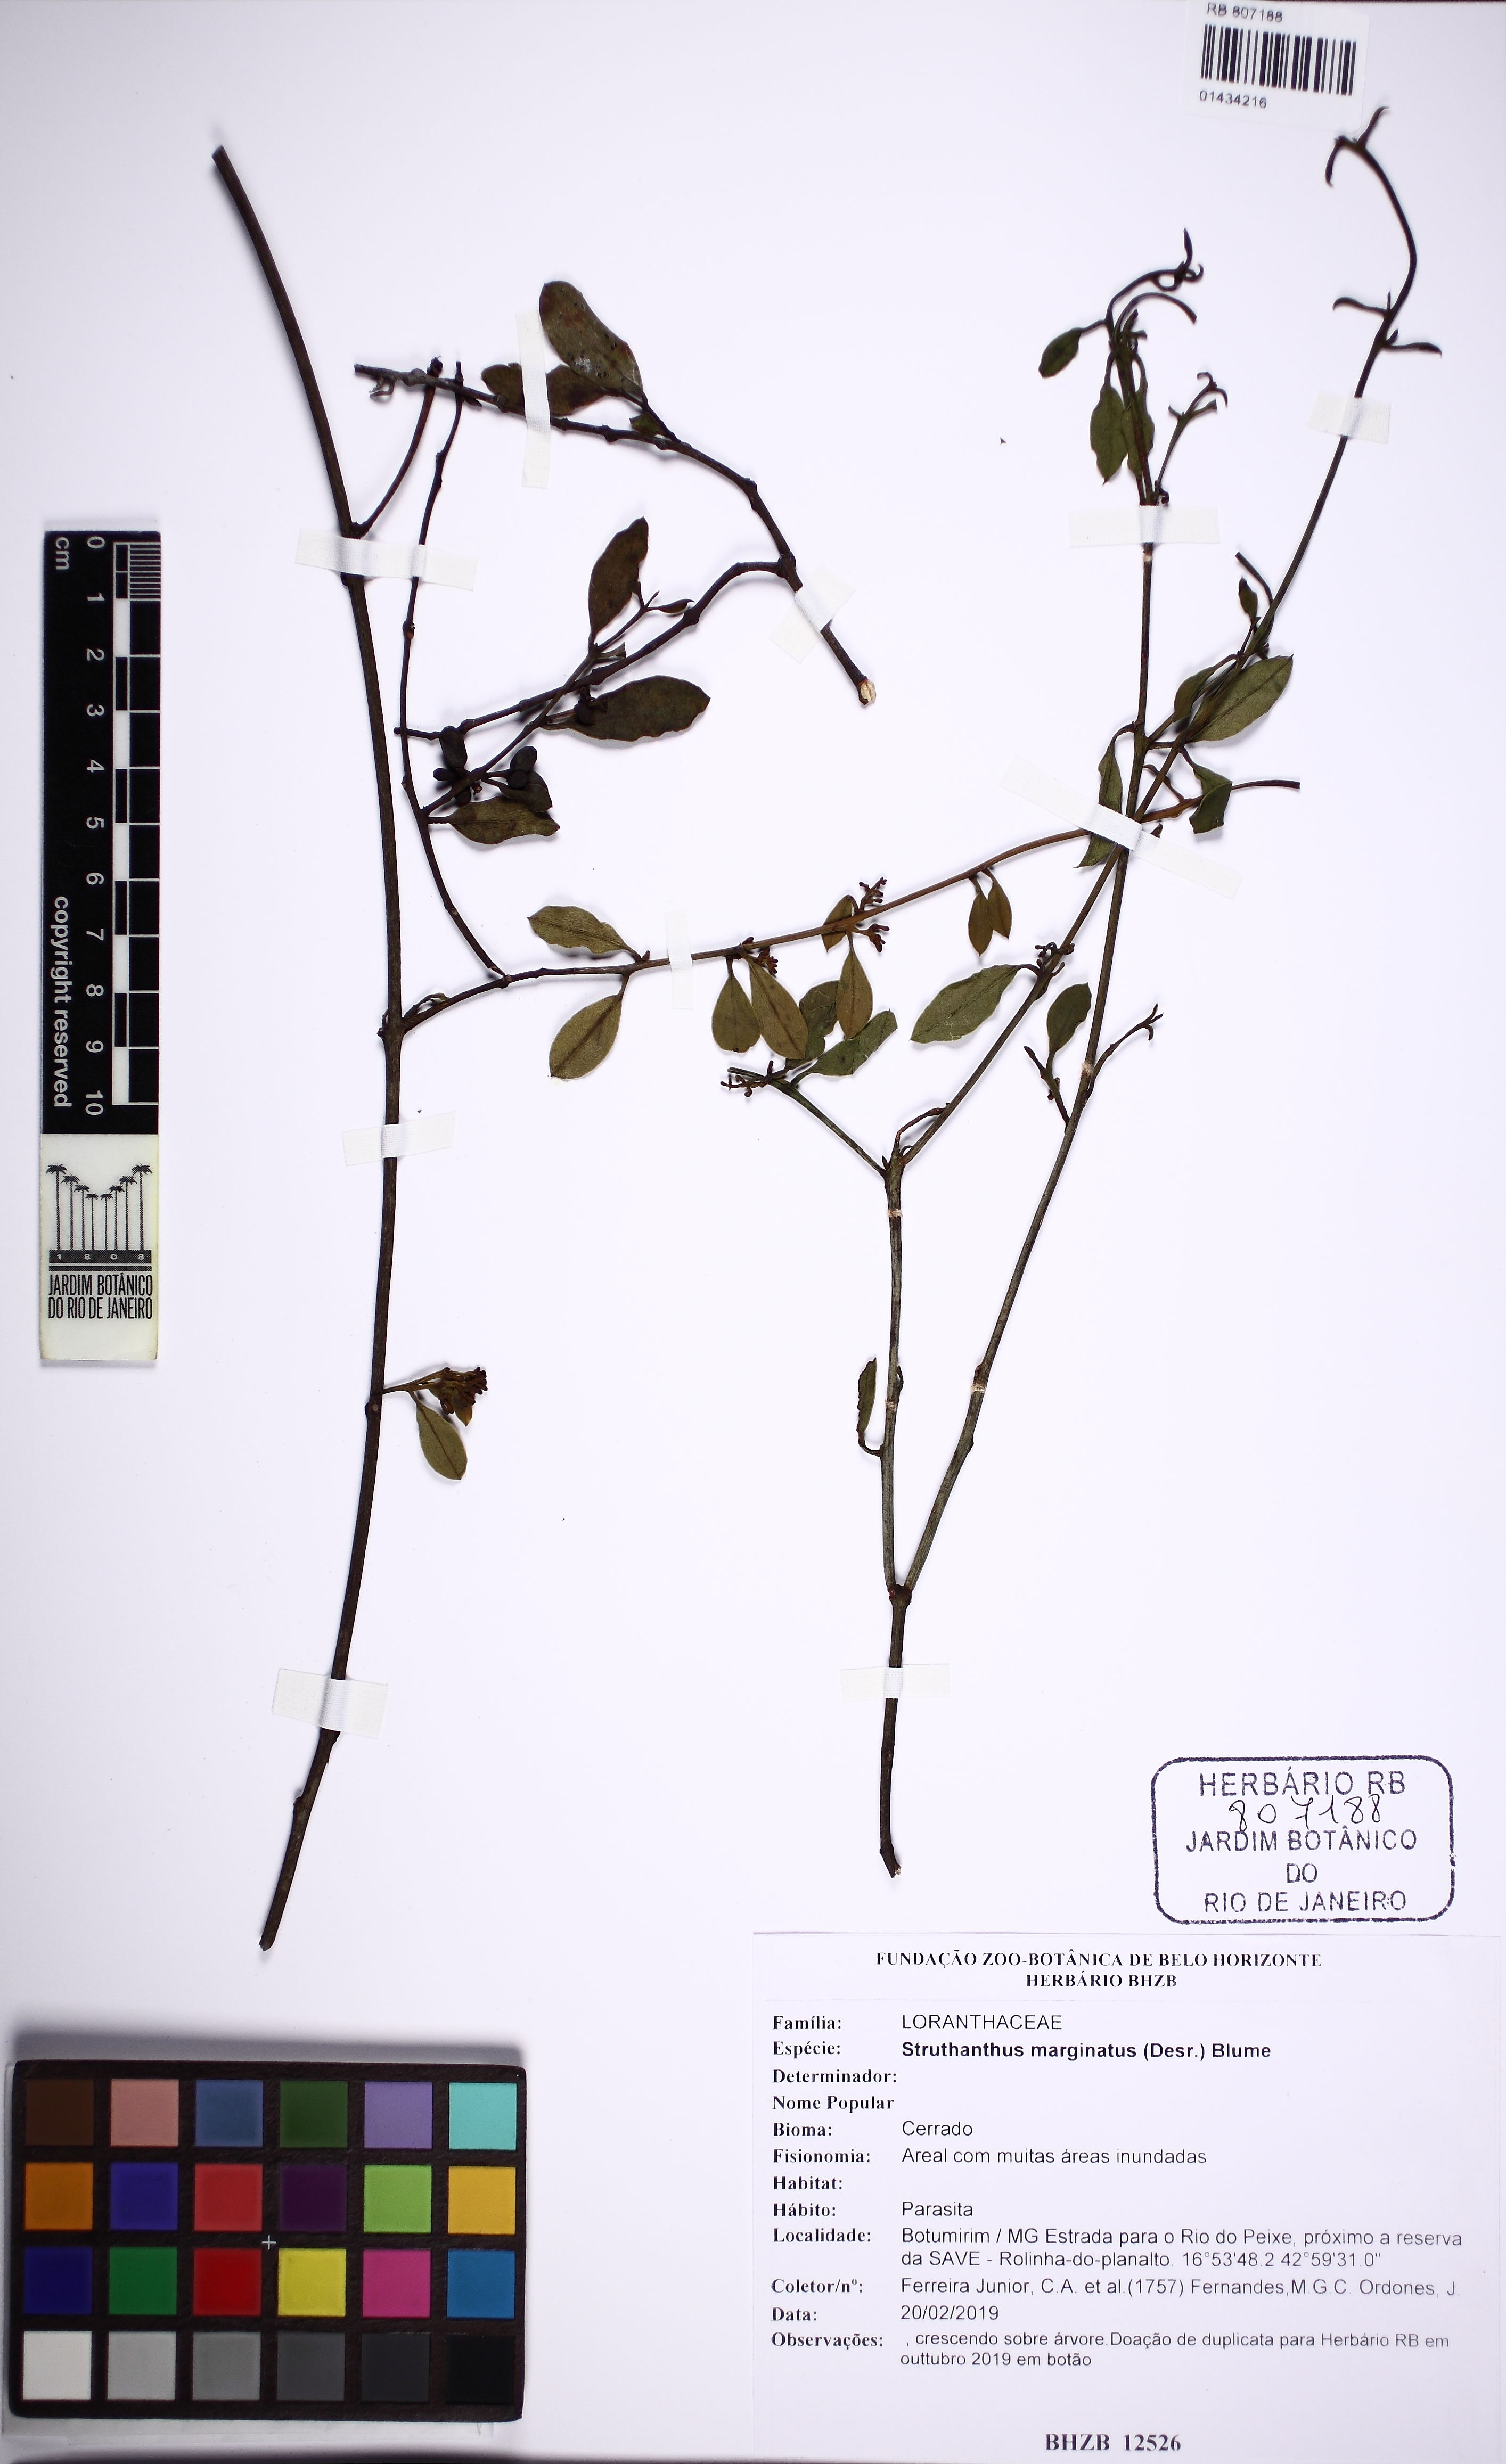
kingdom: Plantae
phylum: Tracheophyta
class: Magnoliopsida
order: Santalales
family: Loranthaceae
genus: Struthanthus
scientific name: Struthanthus marginatus
